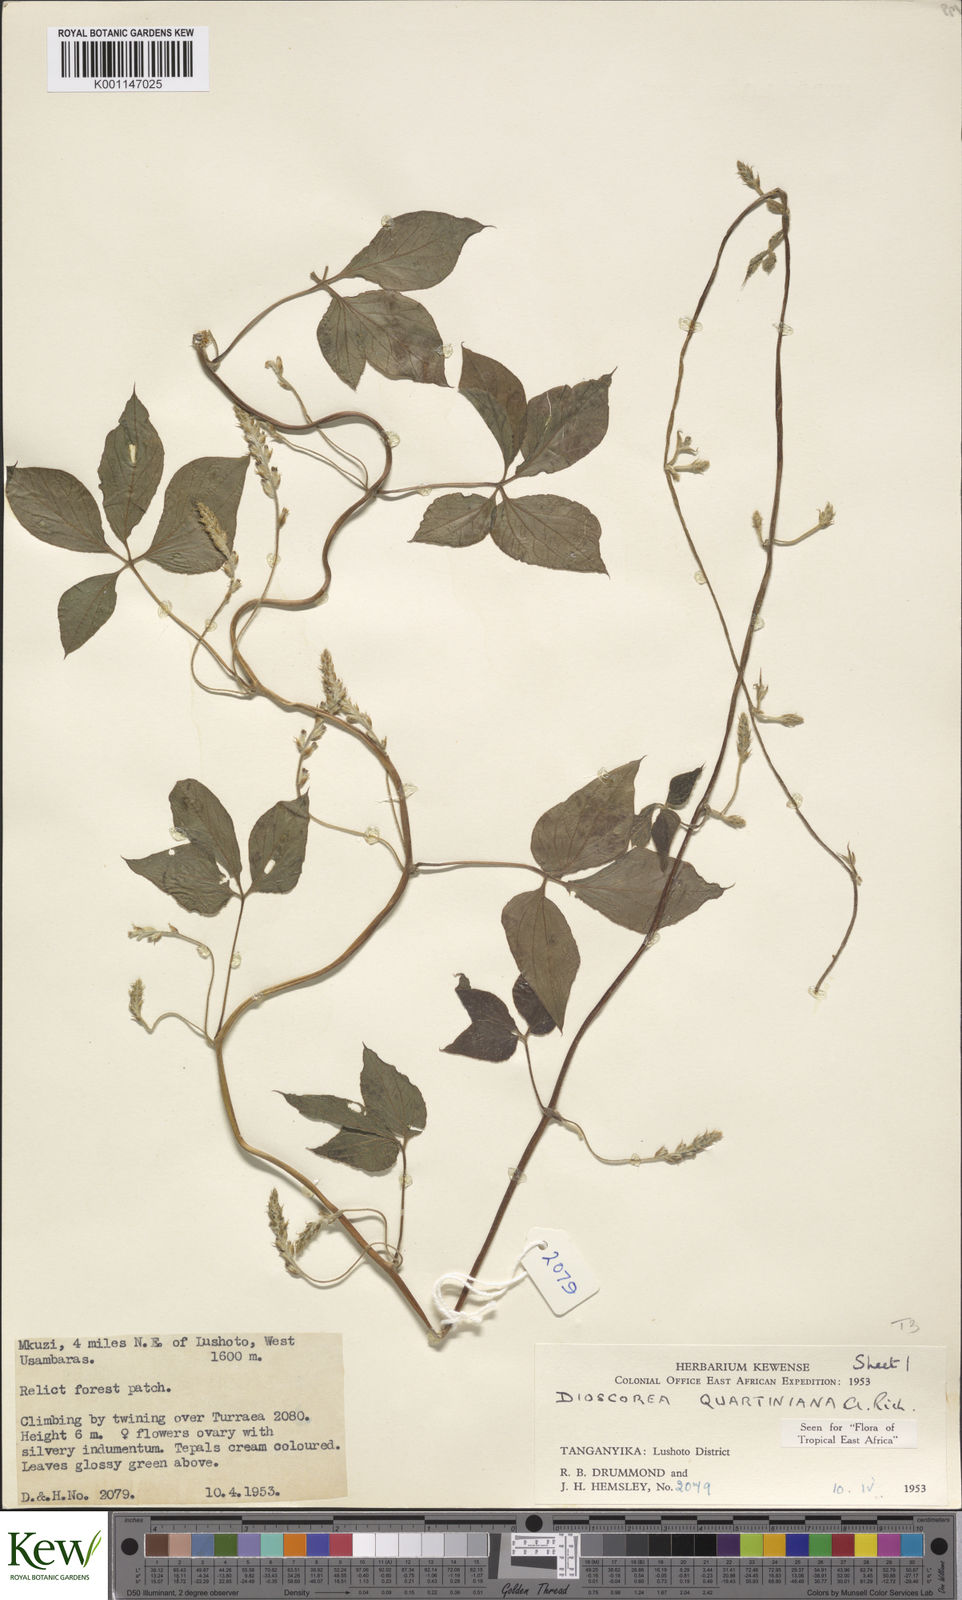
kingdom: Plantae
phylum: Tracheophyta
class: Liliopsida
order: Dioscoreales
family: Dioscoreaceae
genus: Dioscorea
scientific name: Dioscorea quartiniana
